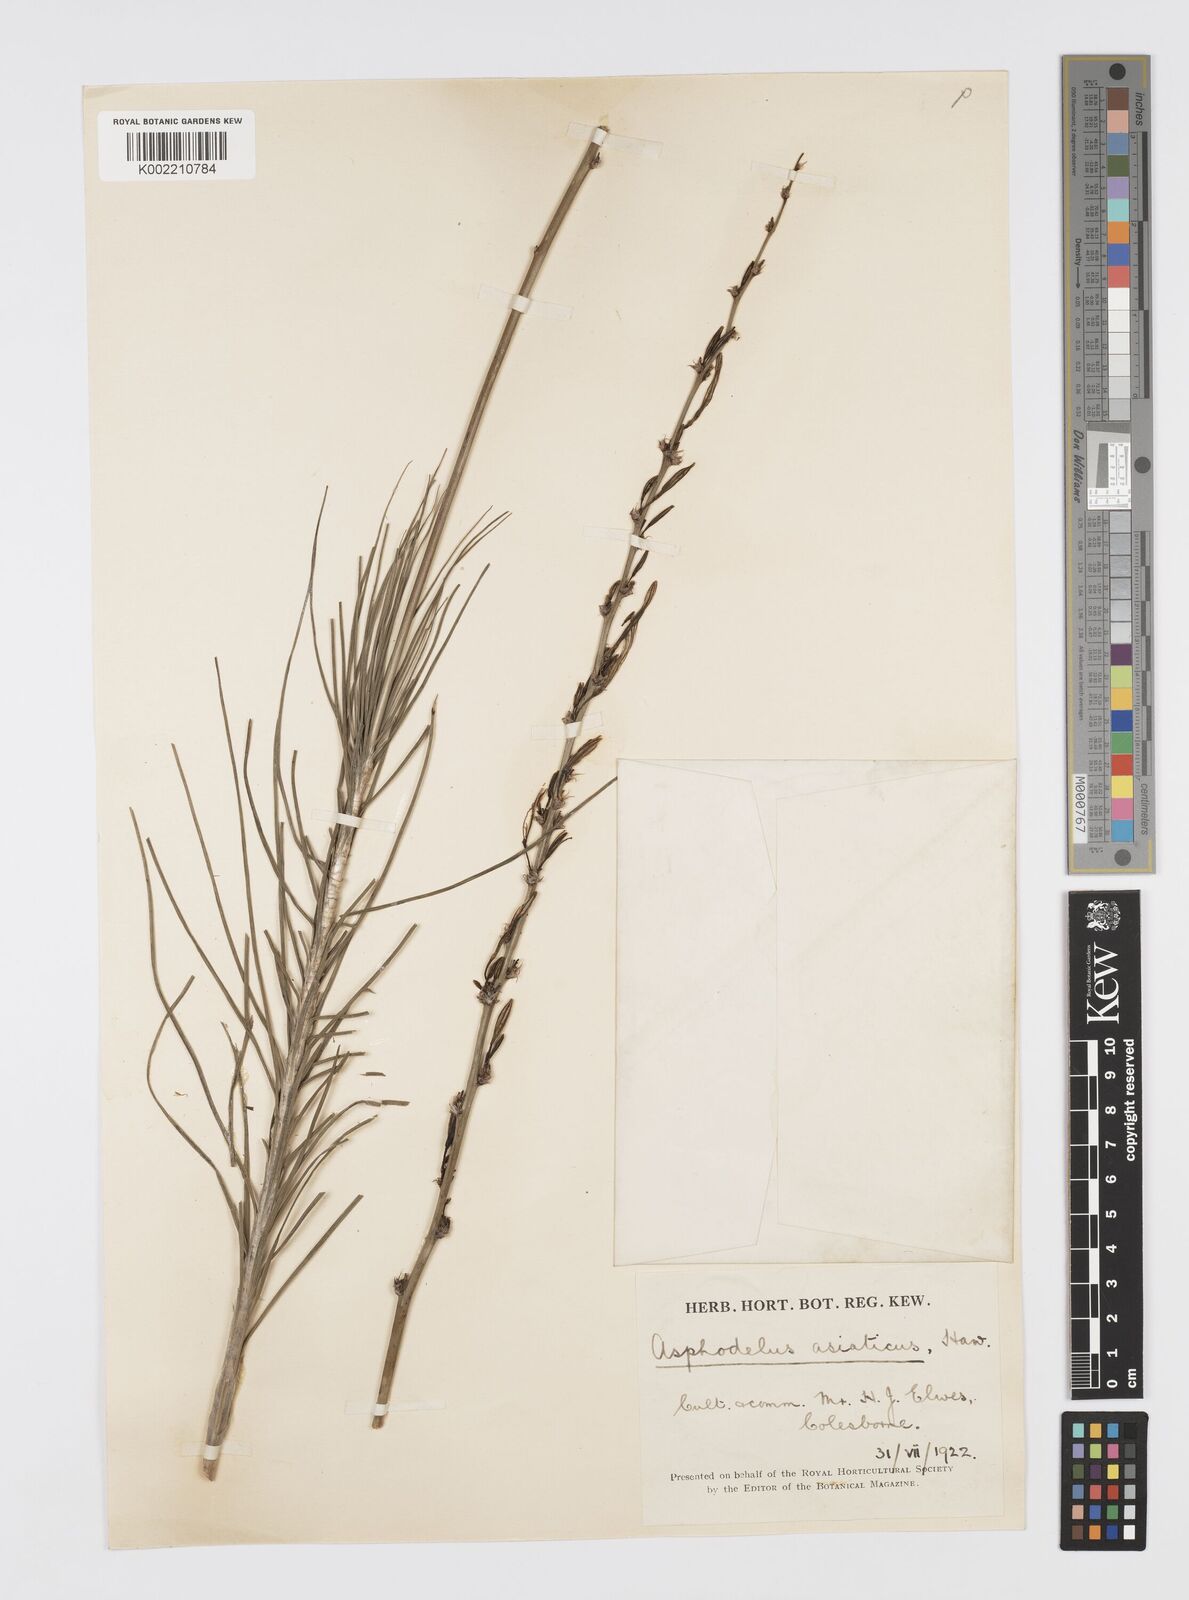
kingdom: Plantae
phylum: Tracheophyta
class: Liliopsida
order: Asparagales
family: Asphodelaceae
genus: Asphodeline
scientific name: Asphodeline
